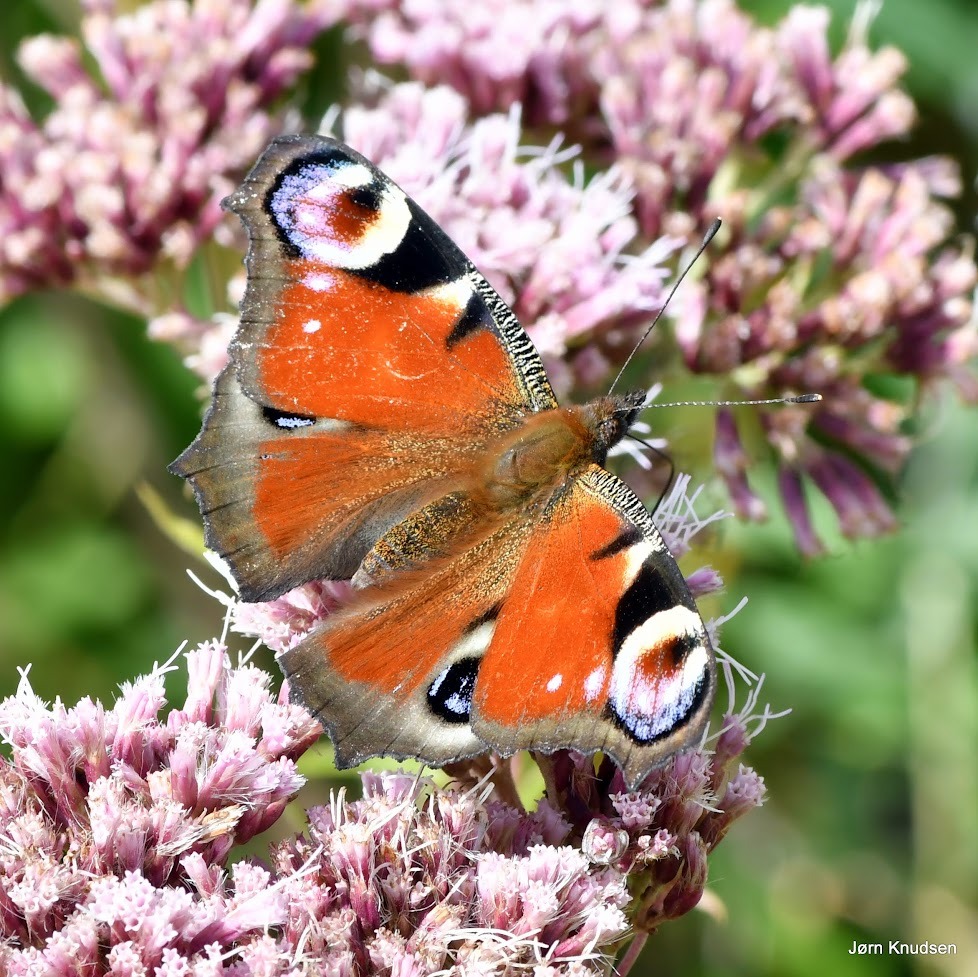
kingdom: Animalia
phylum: Arthropoda
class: Insecta
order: Lepidoptera
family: Nymphalidae
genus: Aglais
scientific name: Aglais io
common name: Dagpåfugleøje
